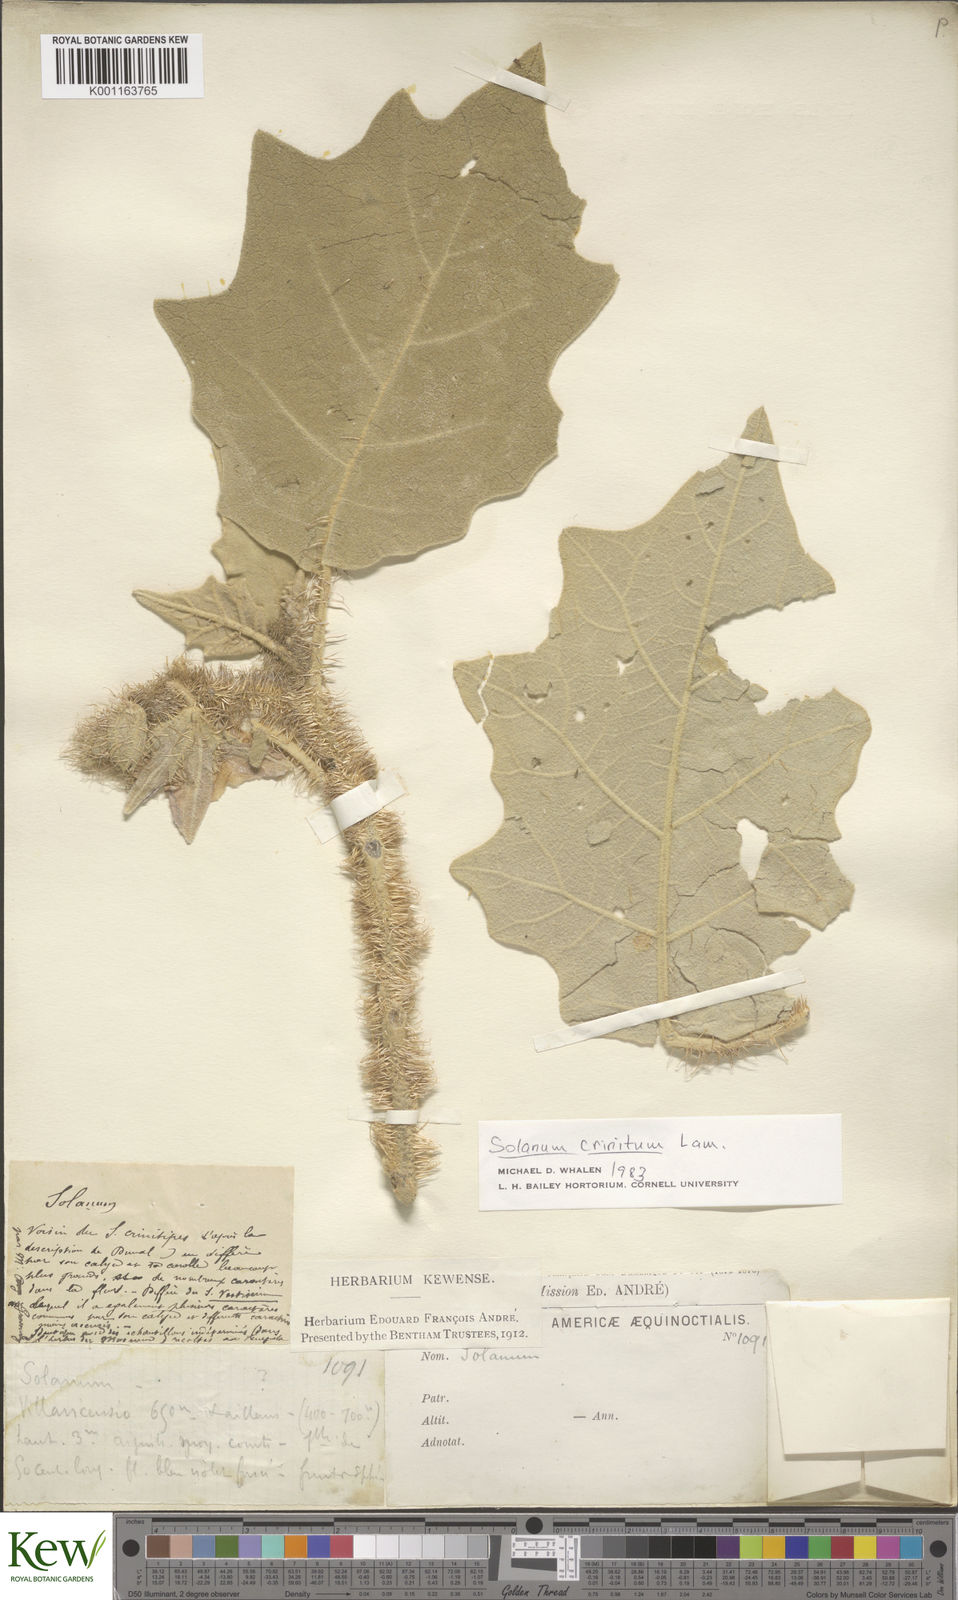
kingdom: Plantae
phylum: Tracheophyta
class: Magnoliopsida
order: Solanales
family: Solanaceae
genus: Solanum
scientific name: Solanum crinitum
